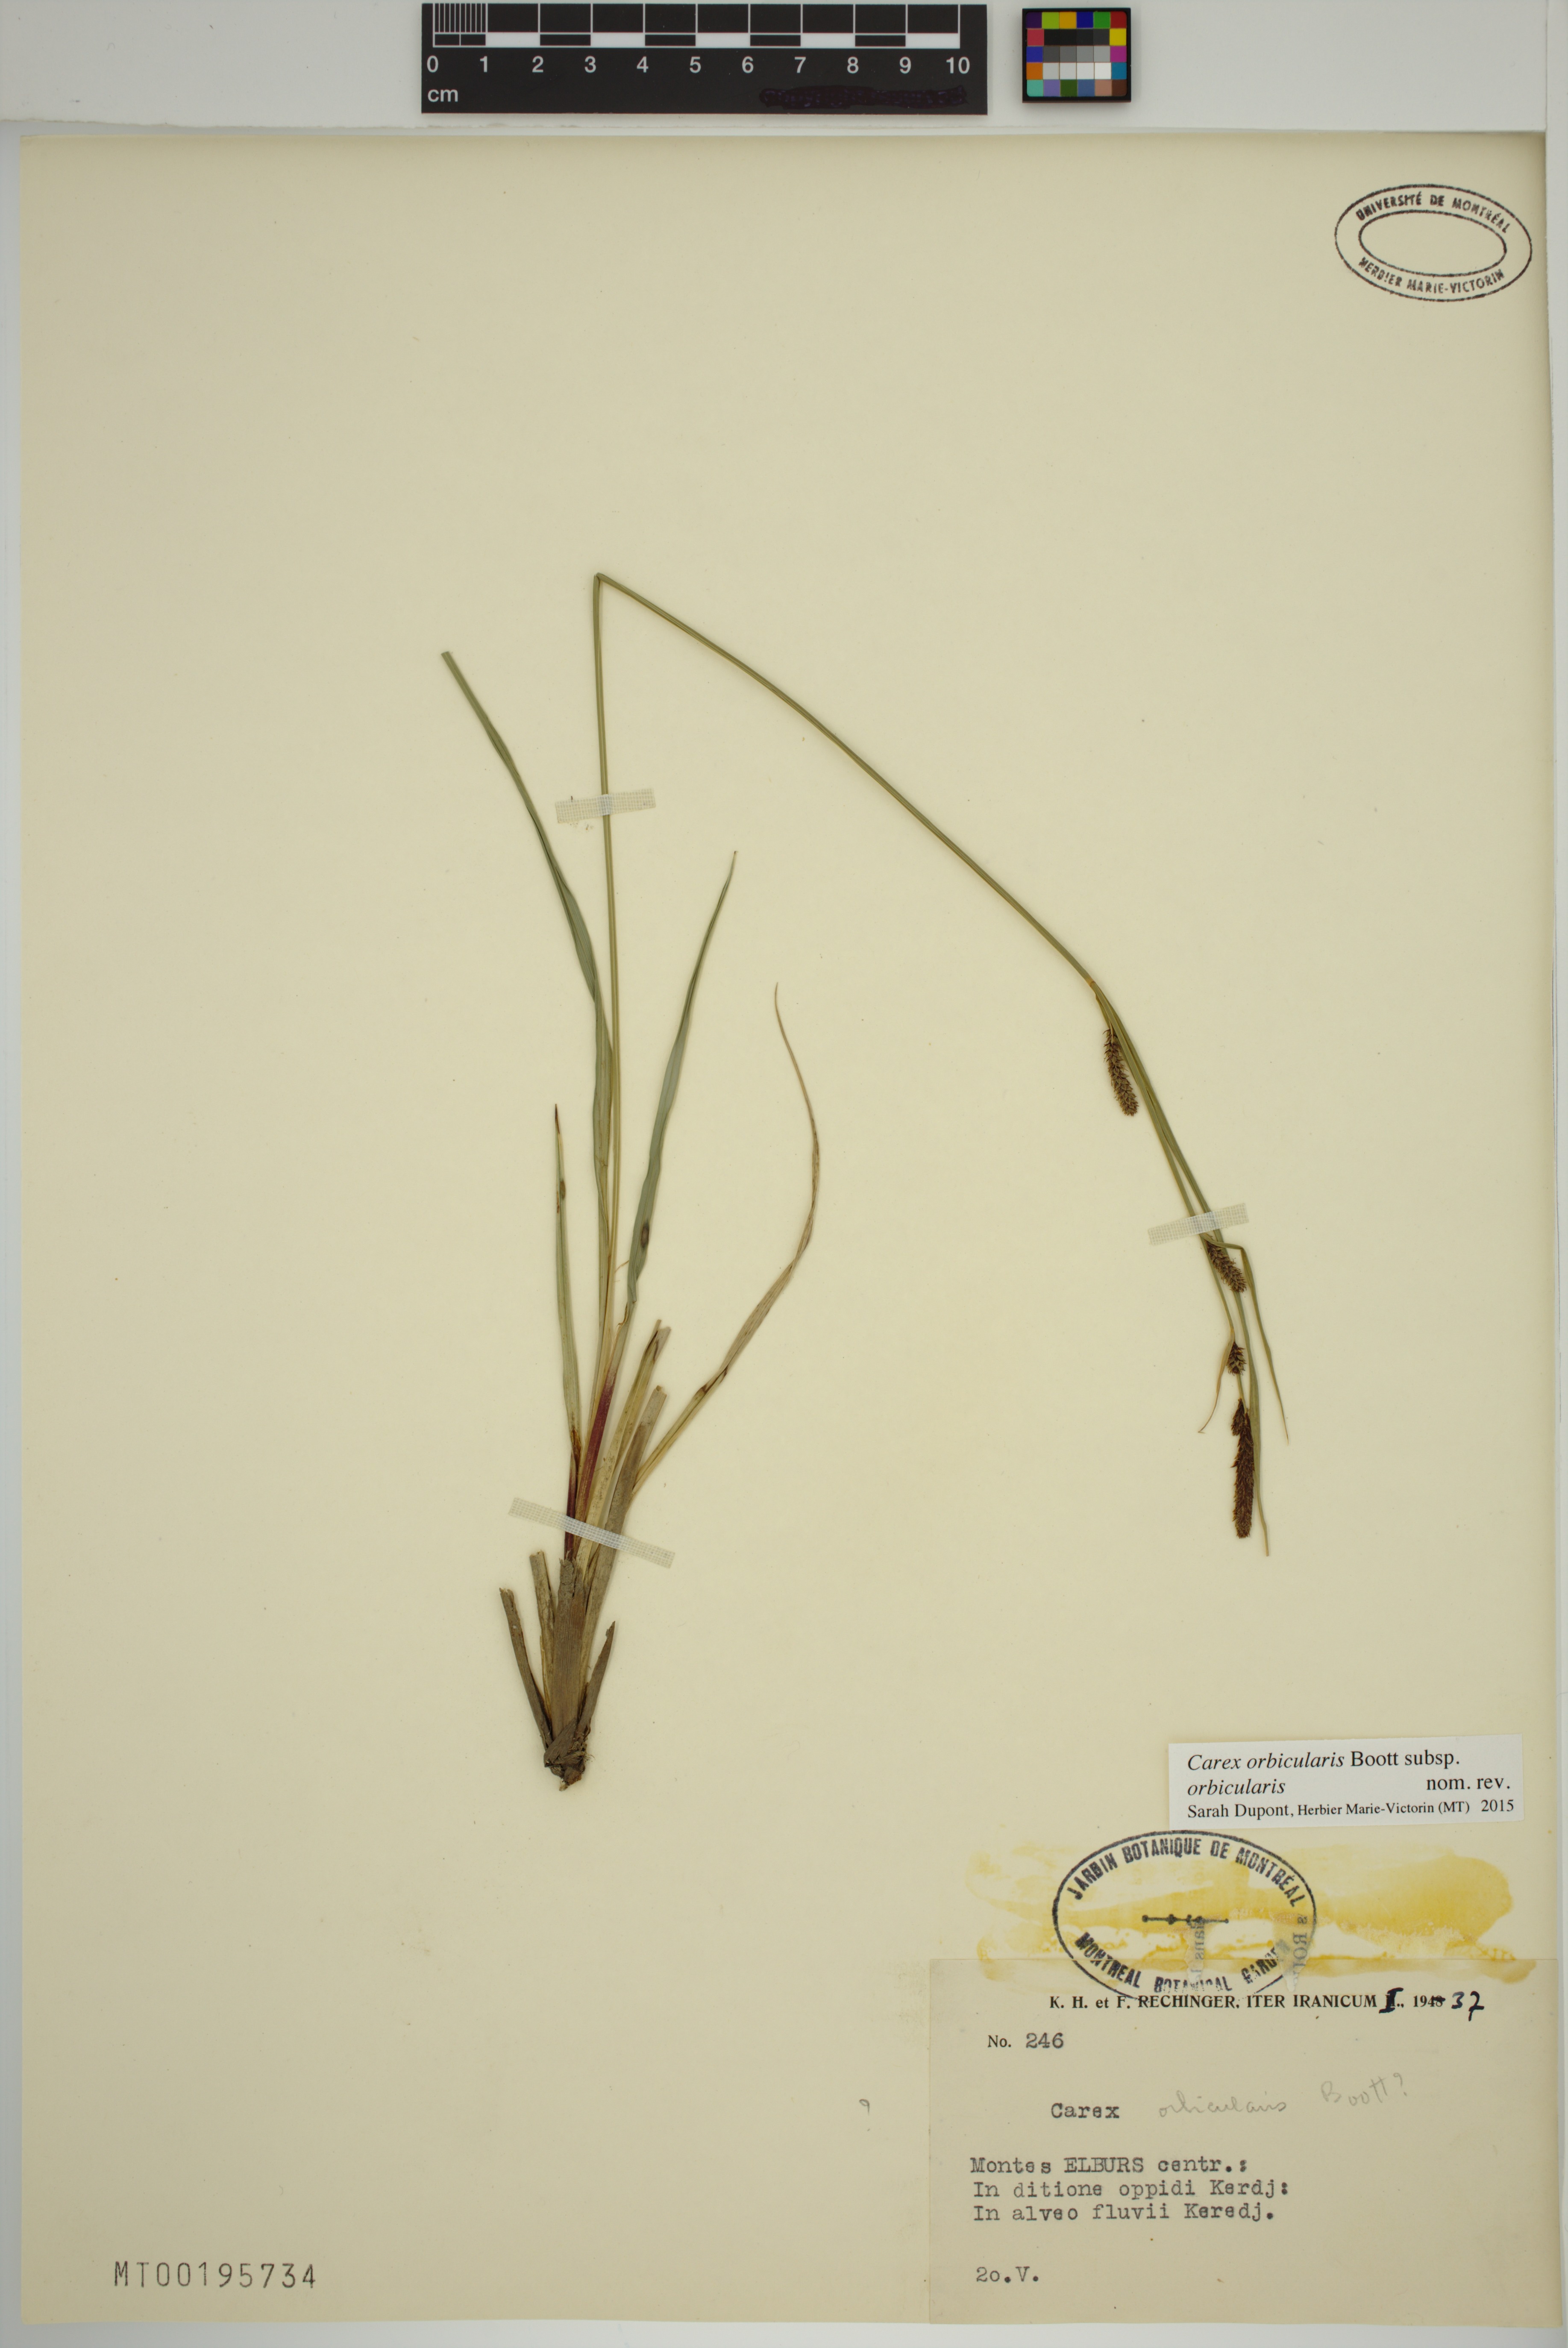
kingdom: Plantae
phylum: Tracheophyta
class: Liliopsida
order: Poales
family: Cyperaceae
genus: Carex
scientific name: Carex orbicularis
